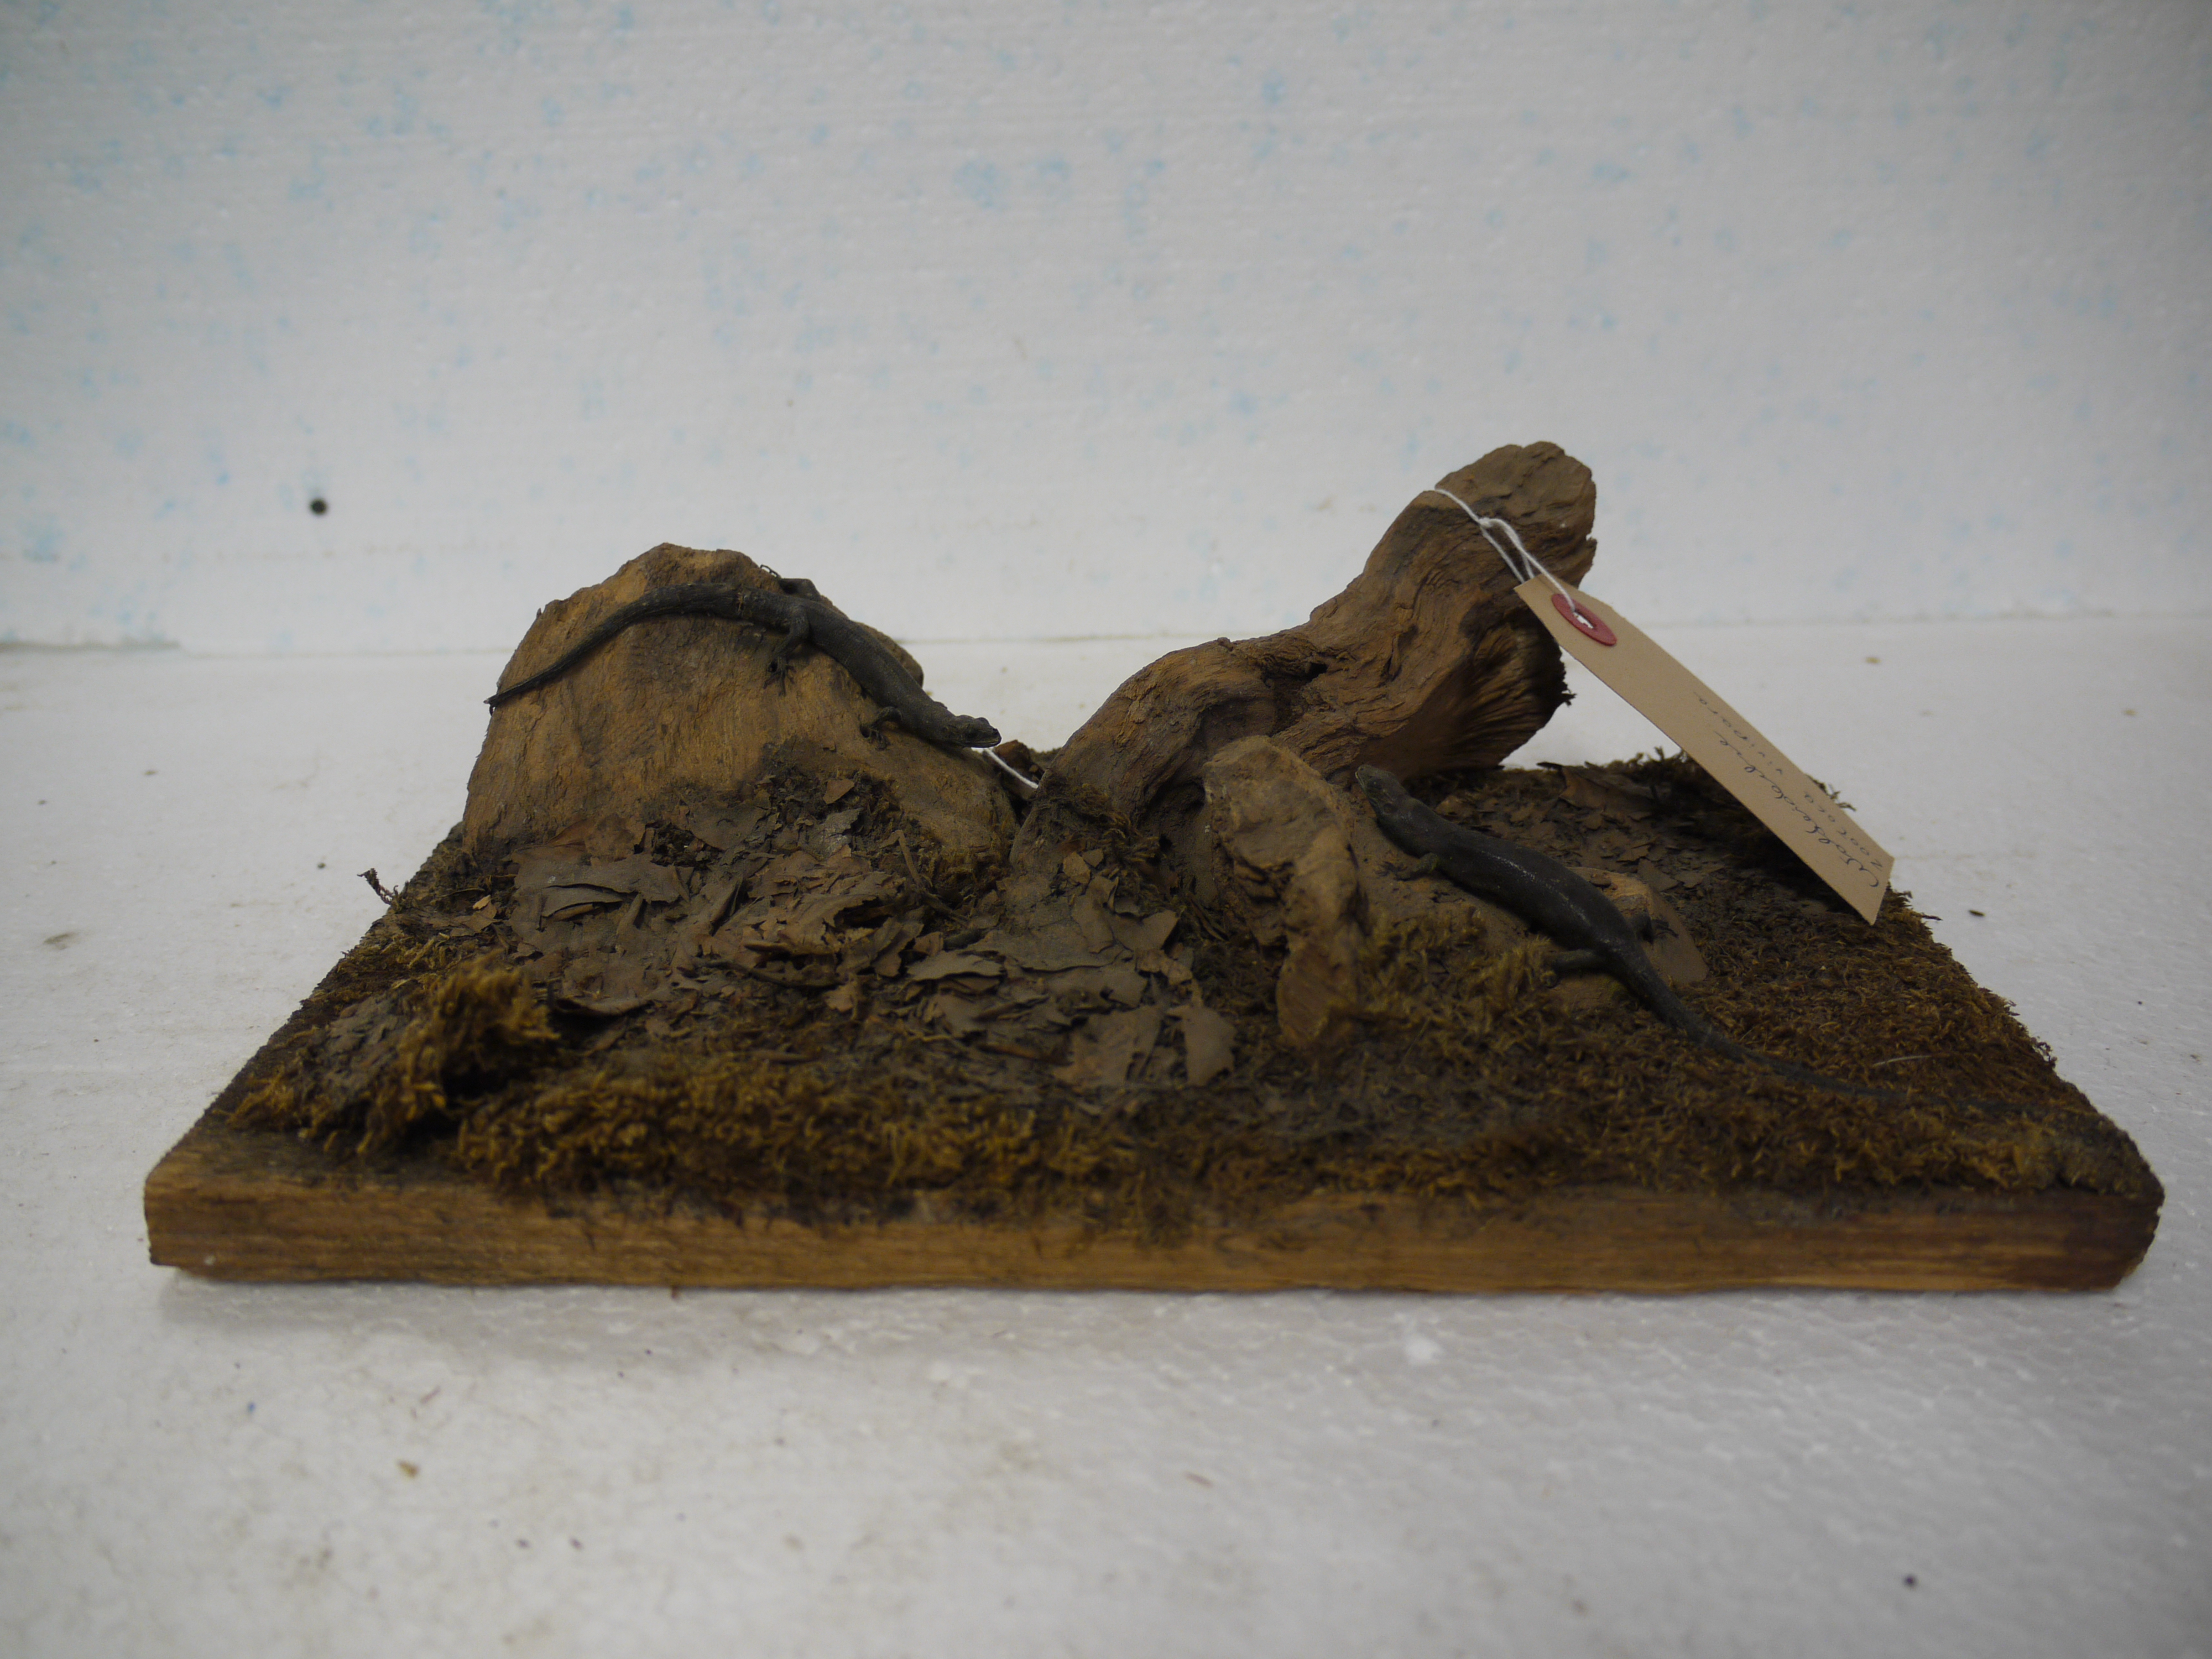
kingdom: Animalia
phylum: Chordata
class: Squamata
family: Lacertidae
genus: Zootoca
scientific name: Zootoca vivipara
